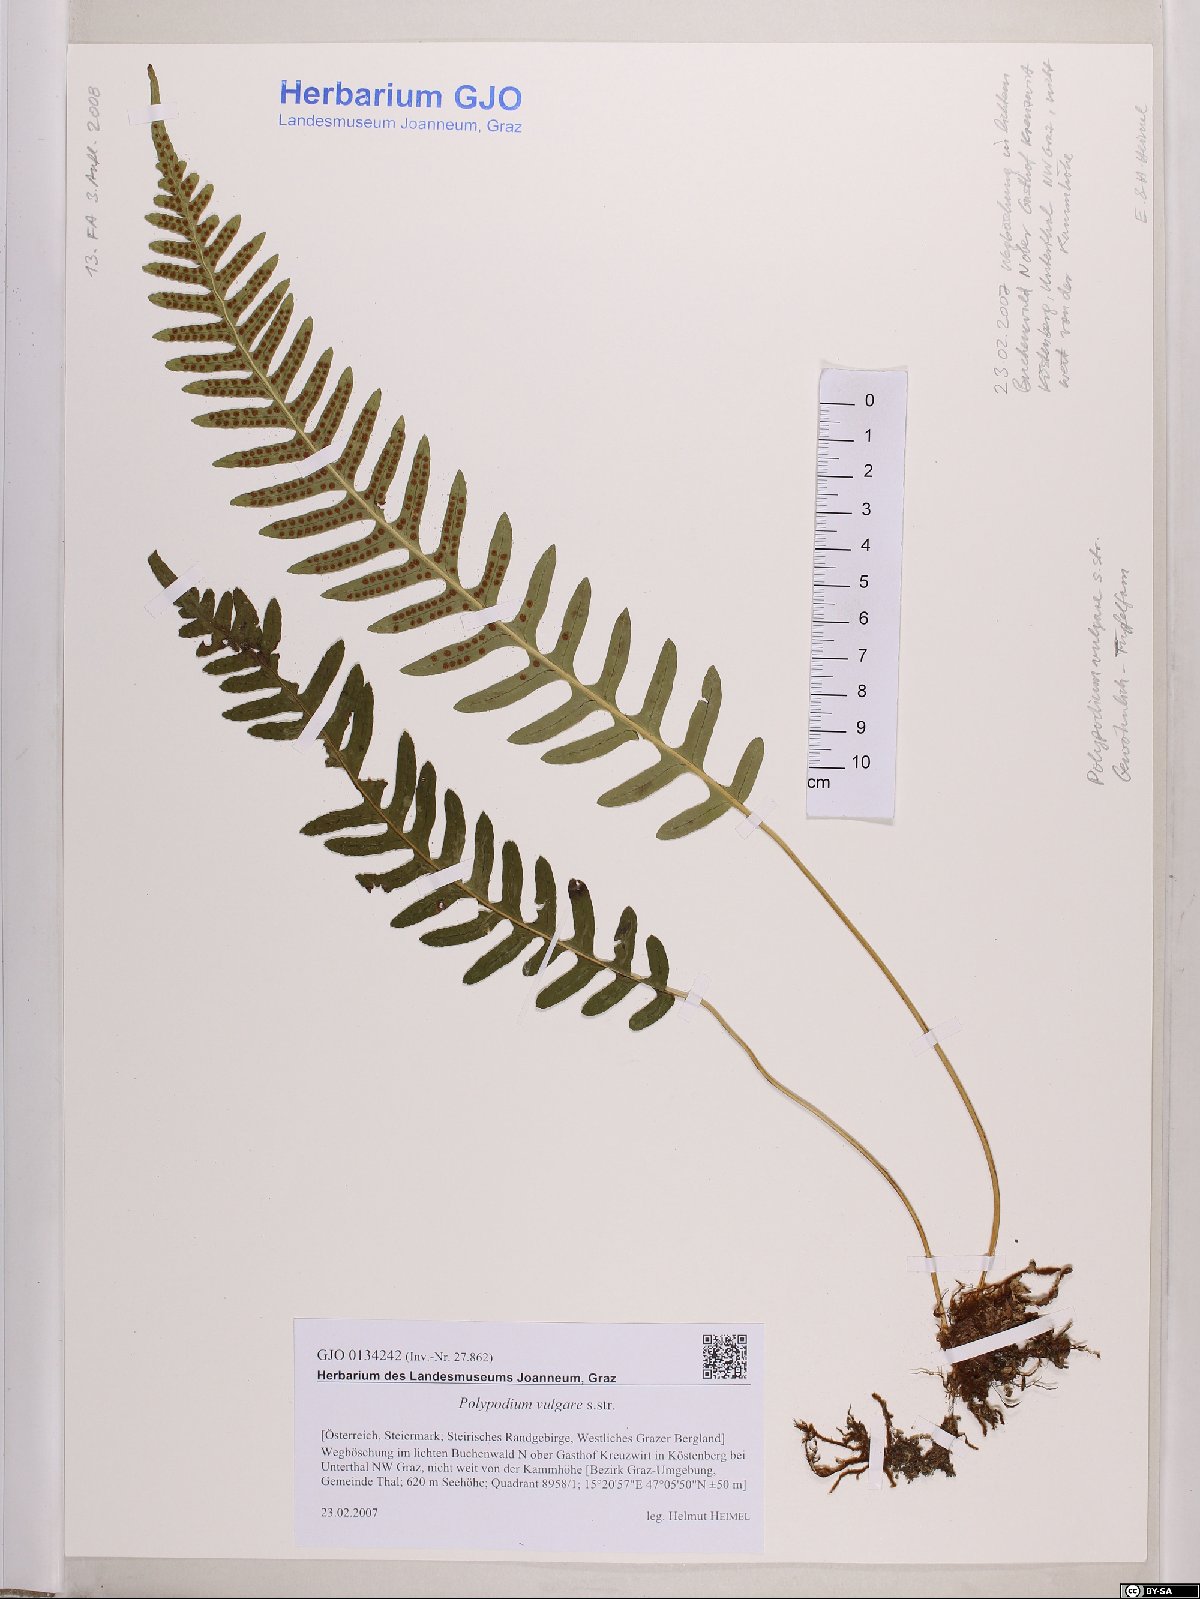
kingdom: Plantae
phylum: Tracheophyta
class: Polypodiopsida
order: Polypodiales
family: Polypodiaceae
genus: Polypodium
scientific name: Polypodium vulgare
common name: Common polypody
